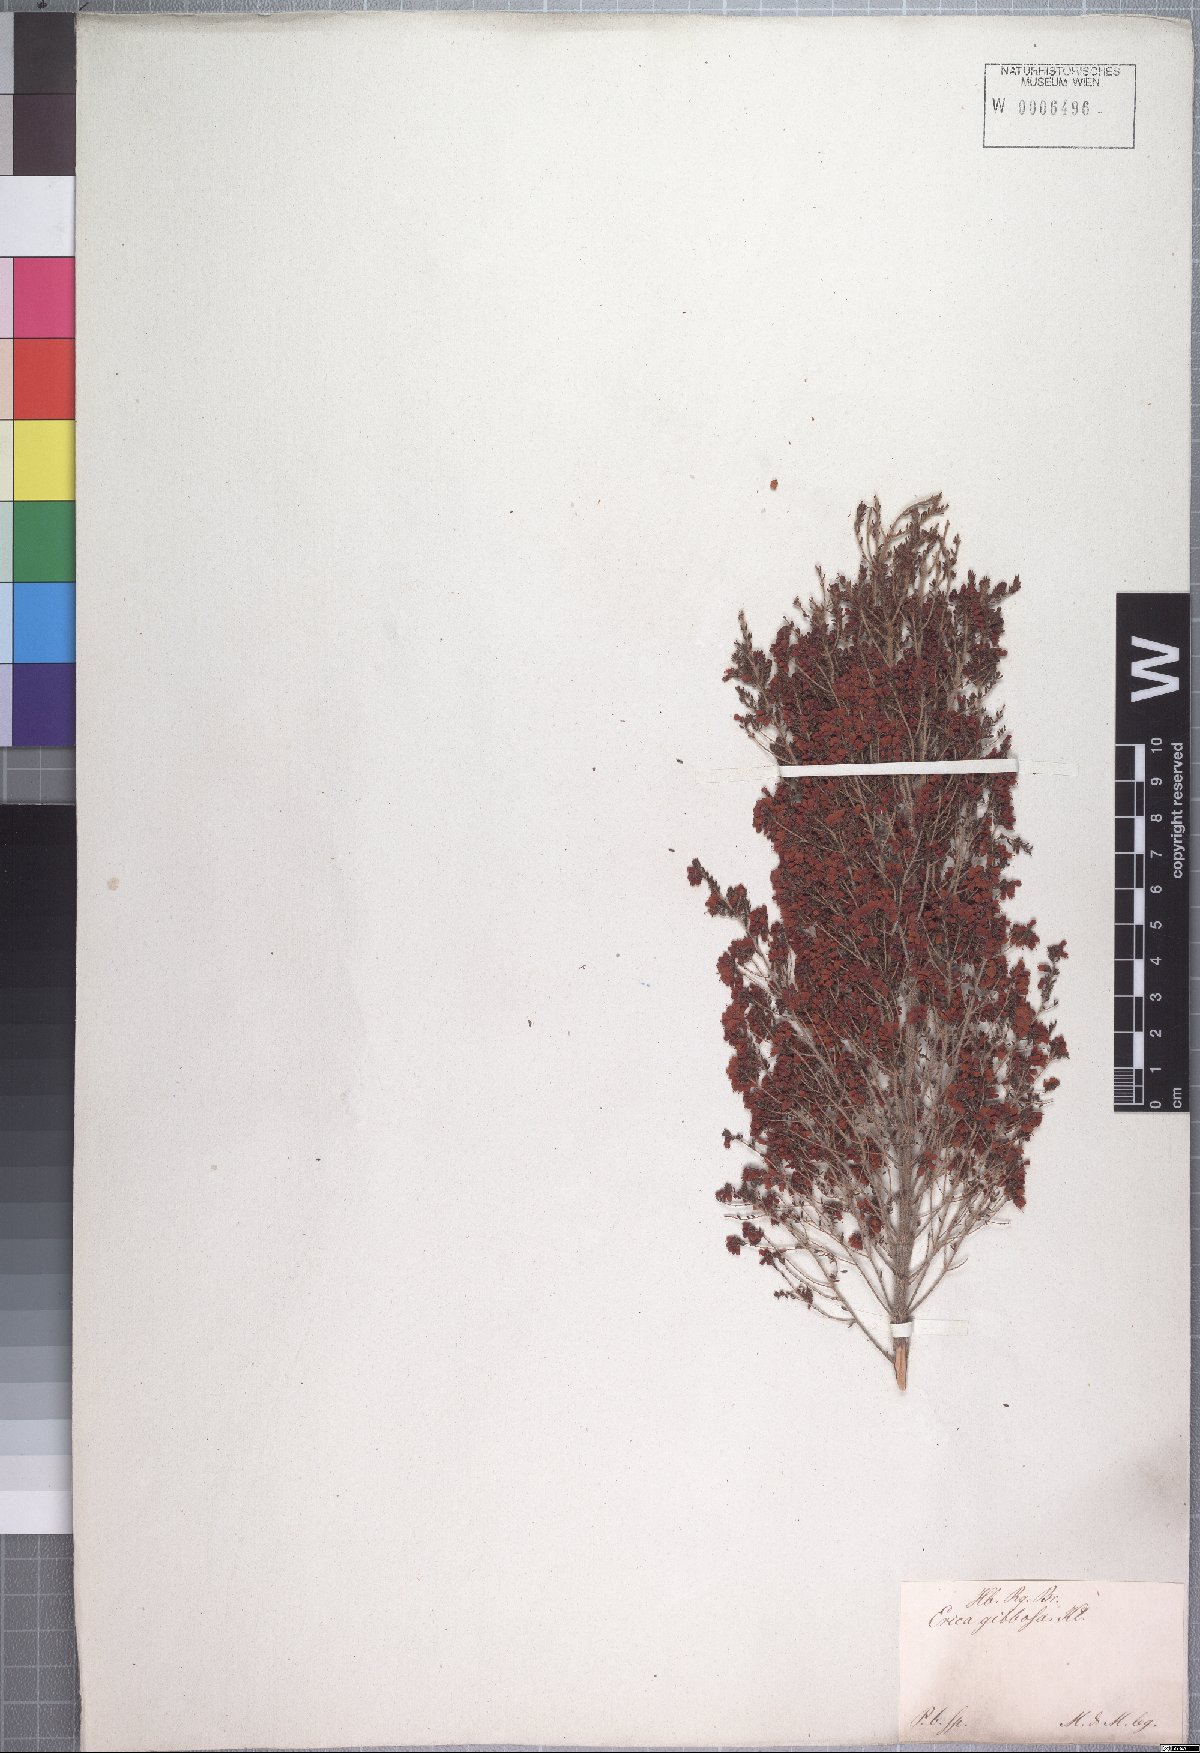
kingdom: Plantae
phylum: Tracheophyta
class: Magnoliopsida
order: Ericales
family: Ericaceae
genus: Erica
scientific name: Erica scabriuscula
